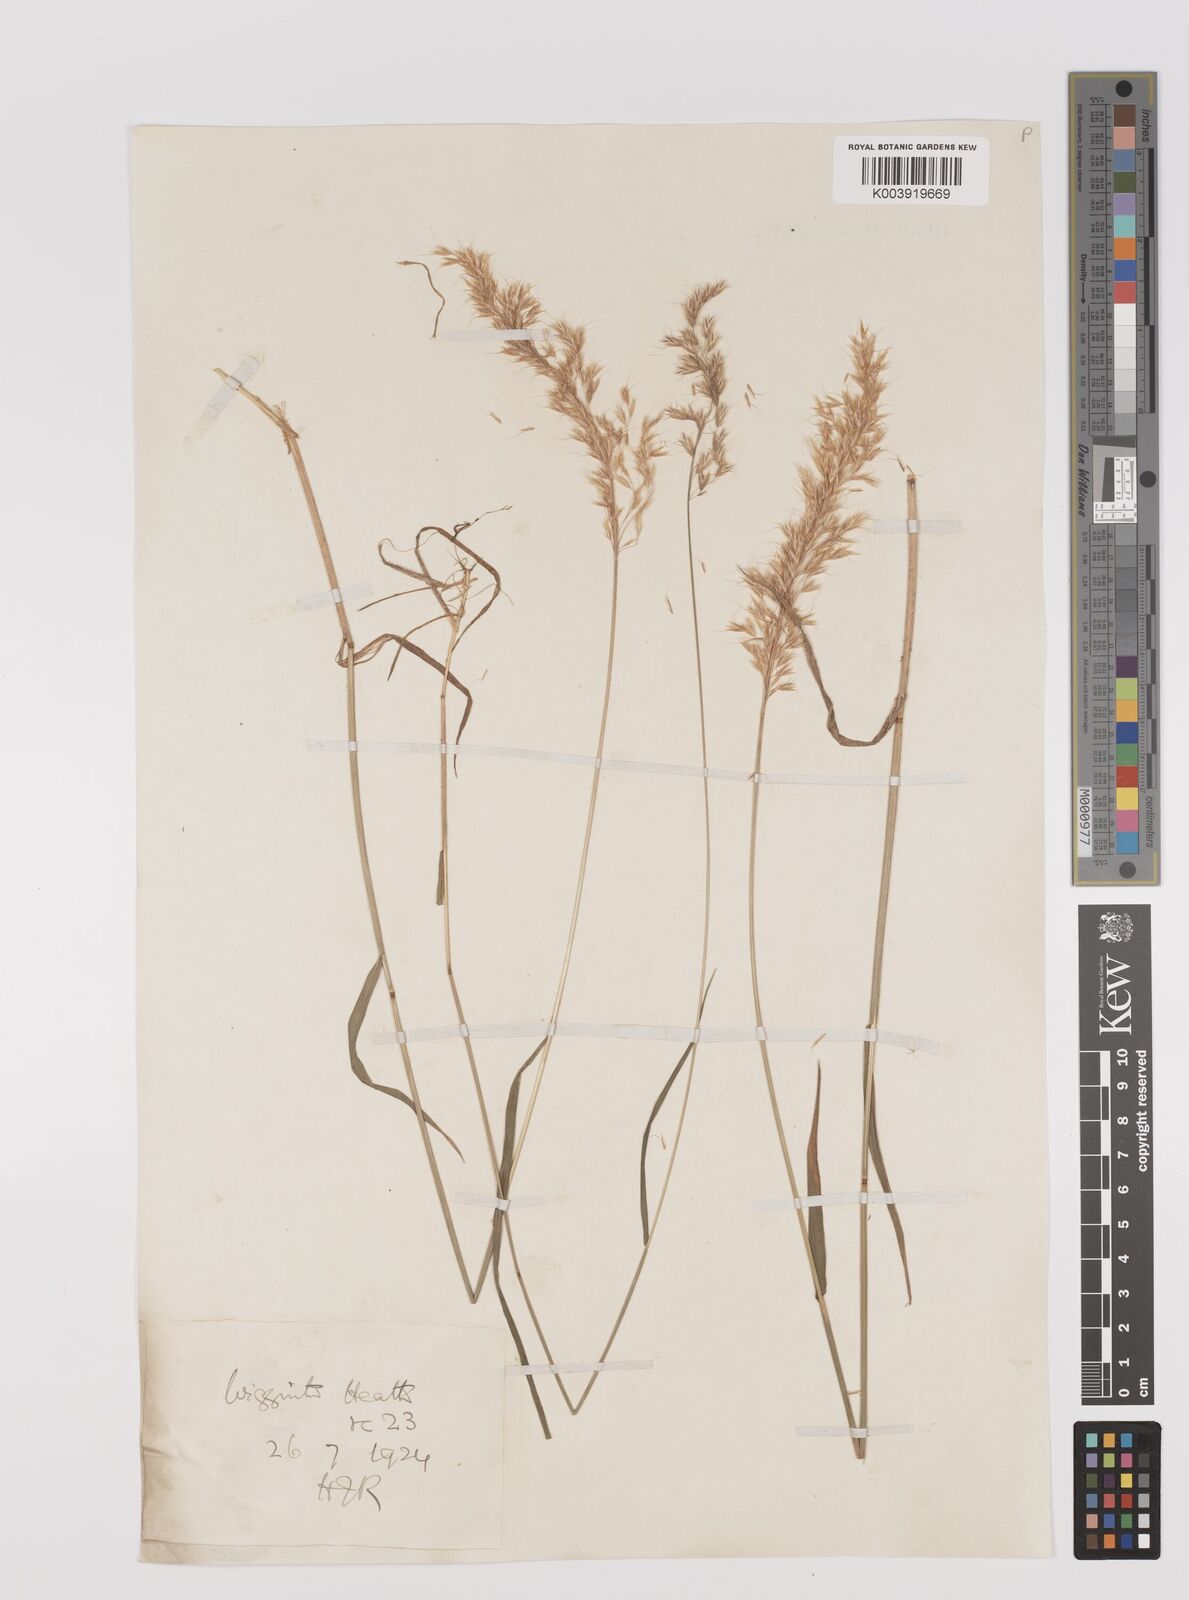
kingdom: Plantae
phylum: Tracheophyta
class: Liliopsida
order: Poales
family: Poaceae
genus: Trisetum
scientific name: Trisetum flavescens
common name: Yellow oat-grass
